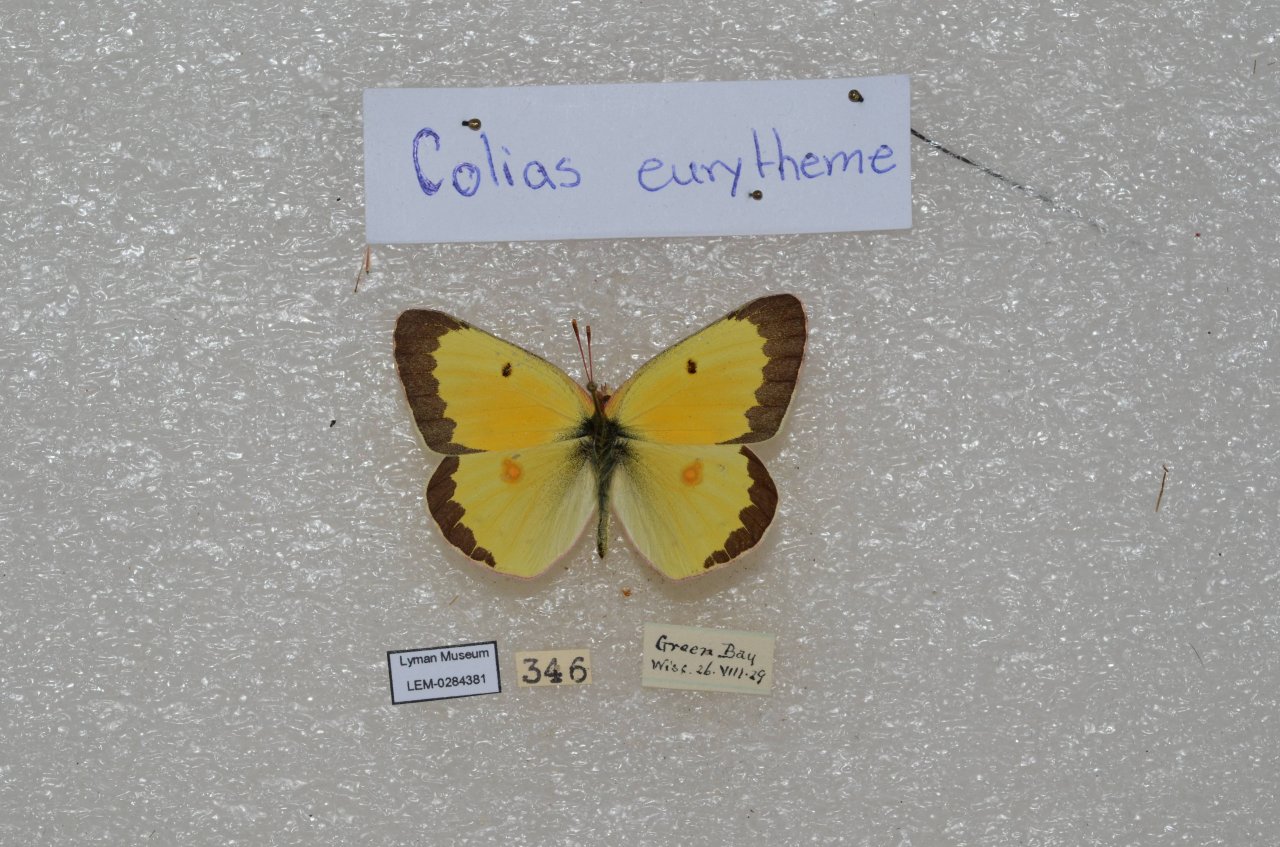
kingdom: Animalia
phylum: Arthropoda
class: Insecta
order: Lepidoptera
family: Pieridae
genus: Colias
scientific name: Colias eurytheme
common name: Orange Sulphur
